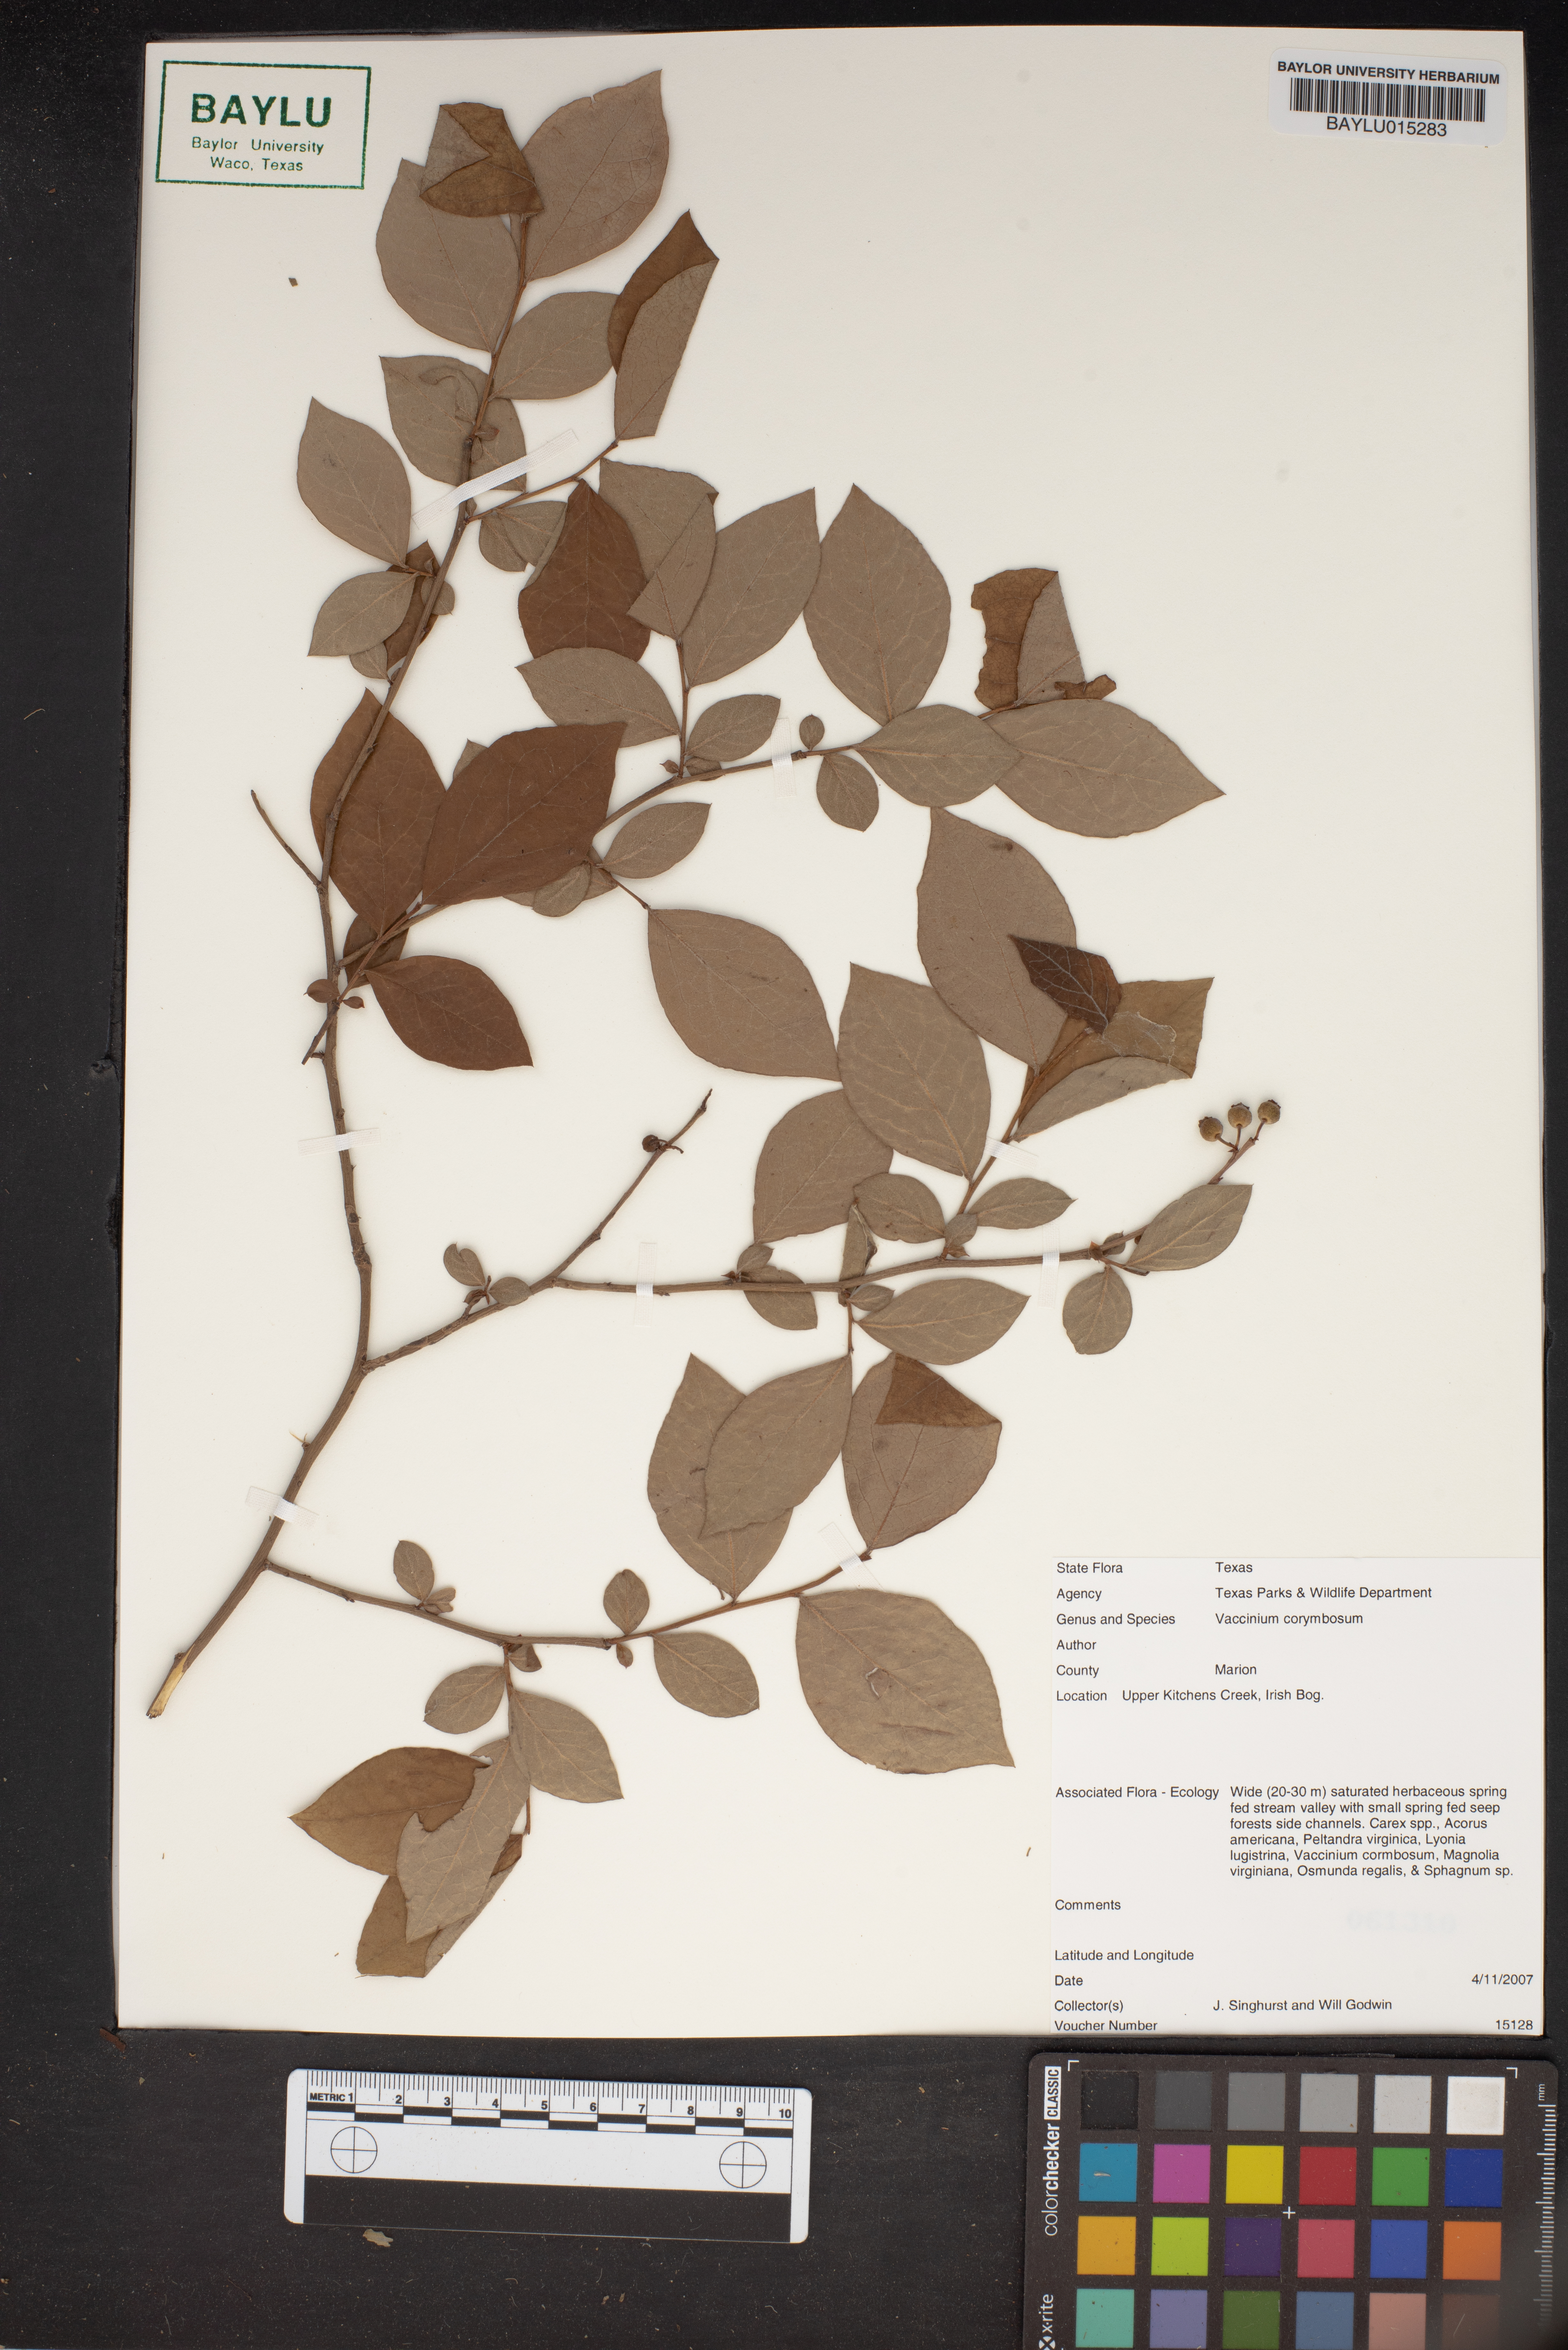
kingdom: Plantae
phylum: Tracheophyta
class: Magnoliopsida
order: Ericales
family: Ericaceae
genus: Vaccinium
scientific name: Vaccinium corymbosum
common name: Blueberry
